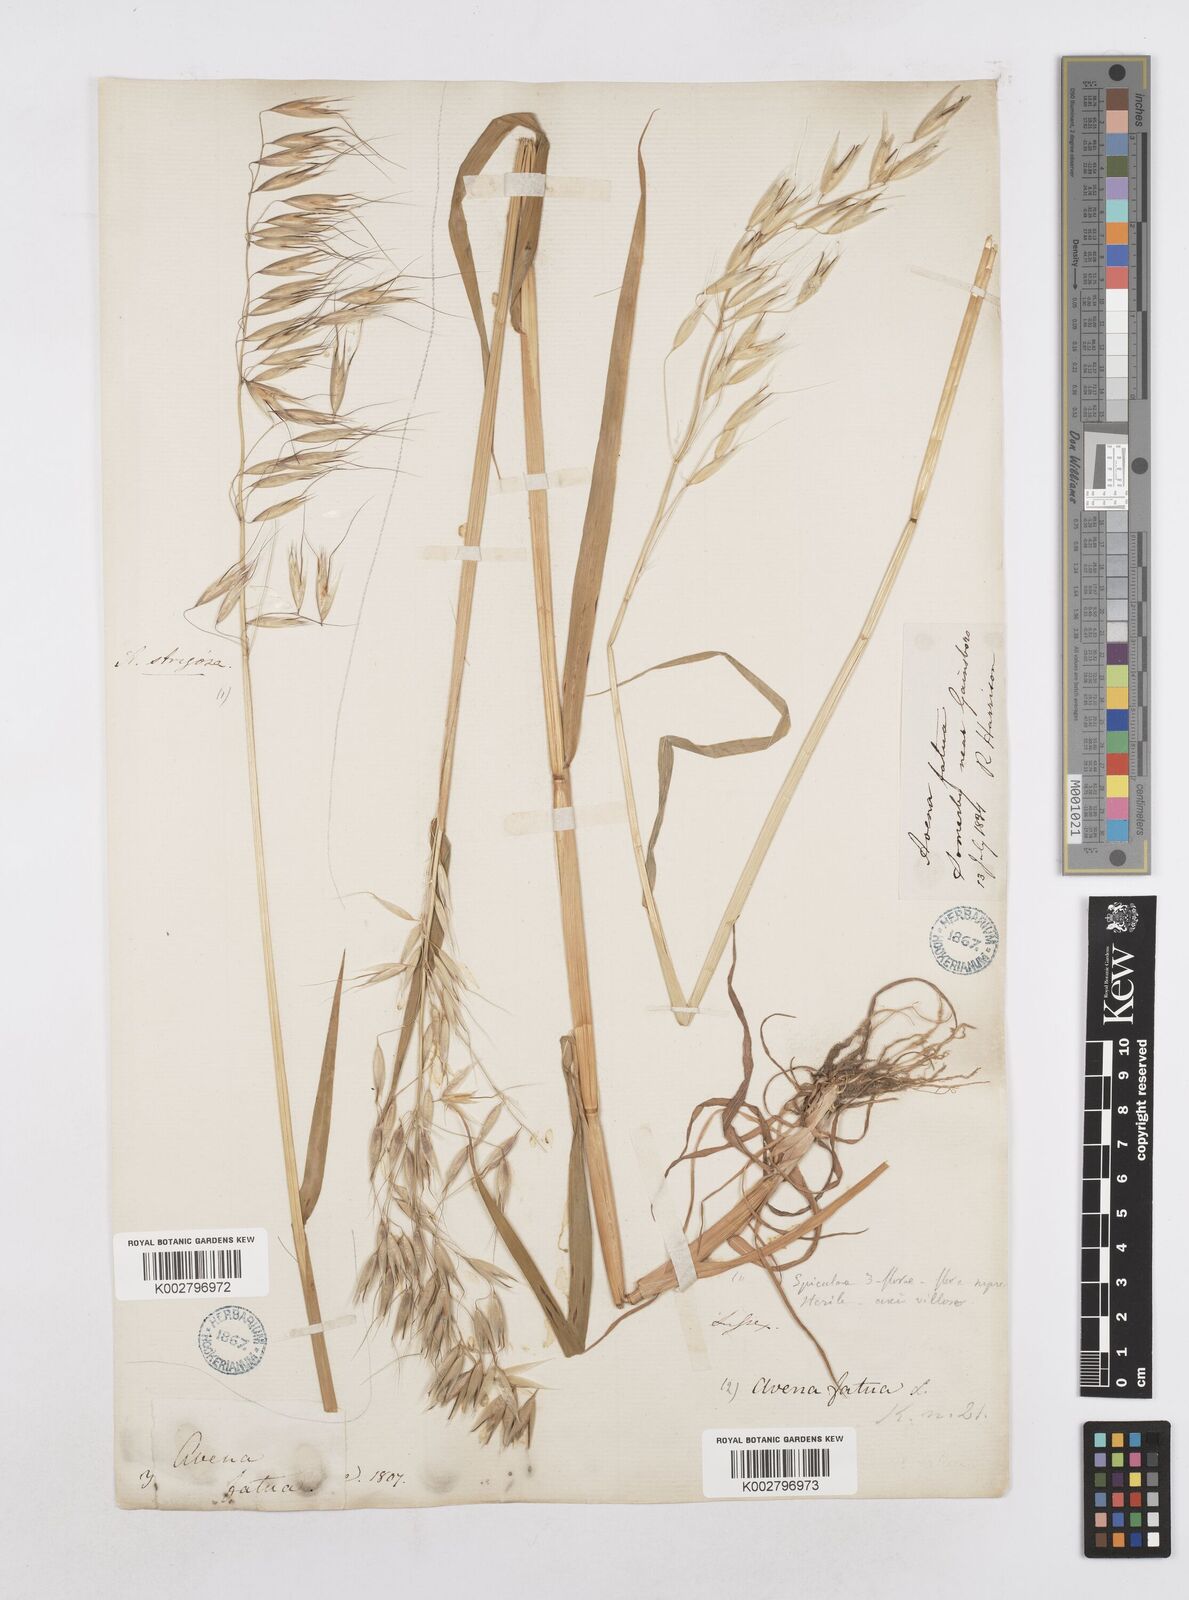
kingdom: Plantae
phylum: Tracheophyta
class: Liliopsida
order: Poales
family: Poaceae
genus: Avena
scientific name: Avena
